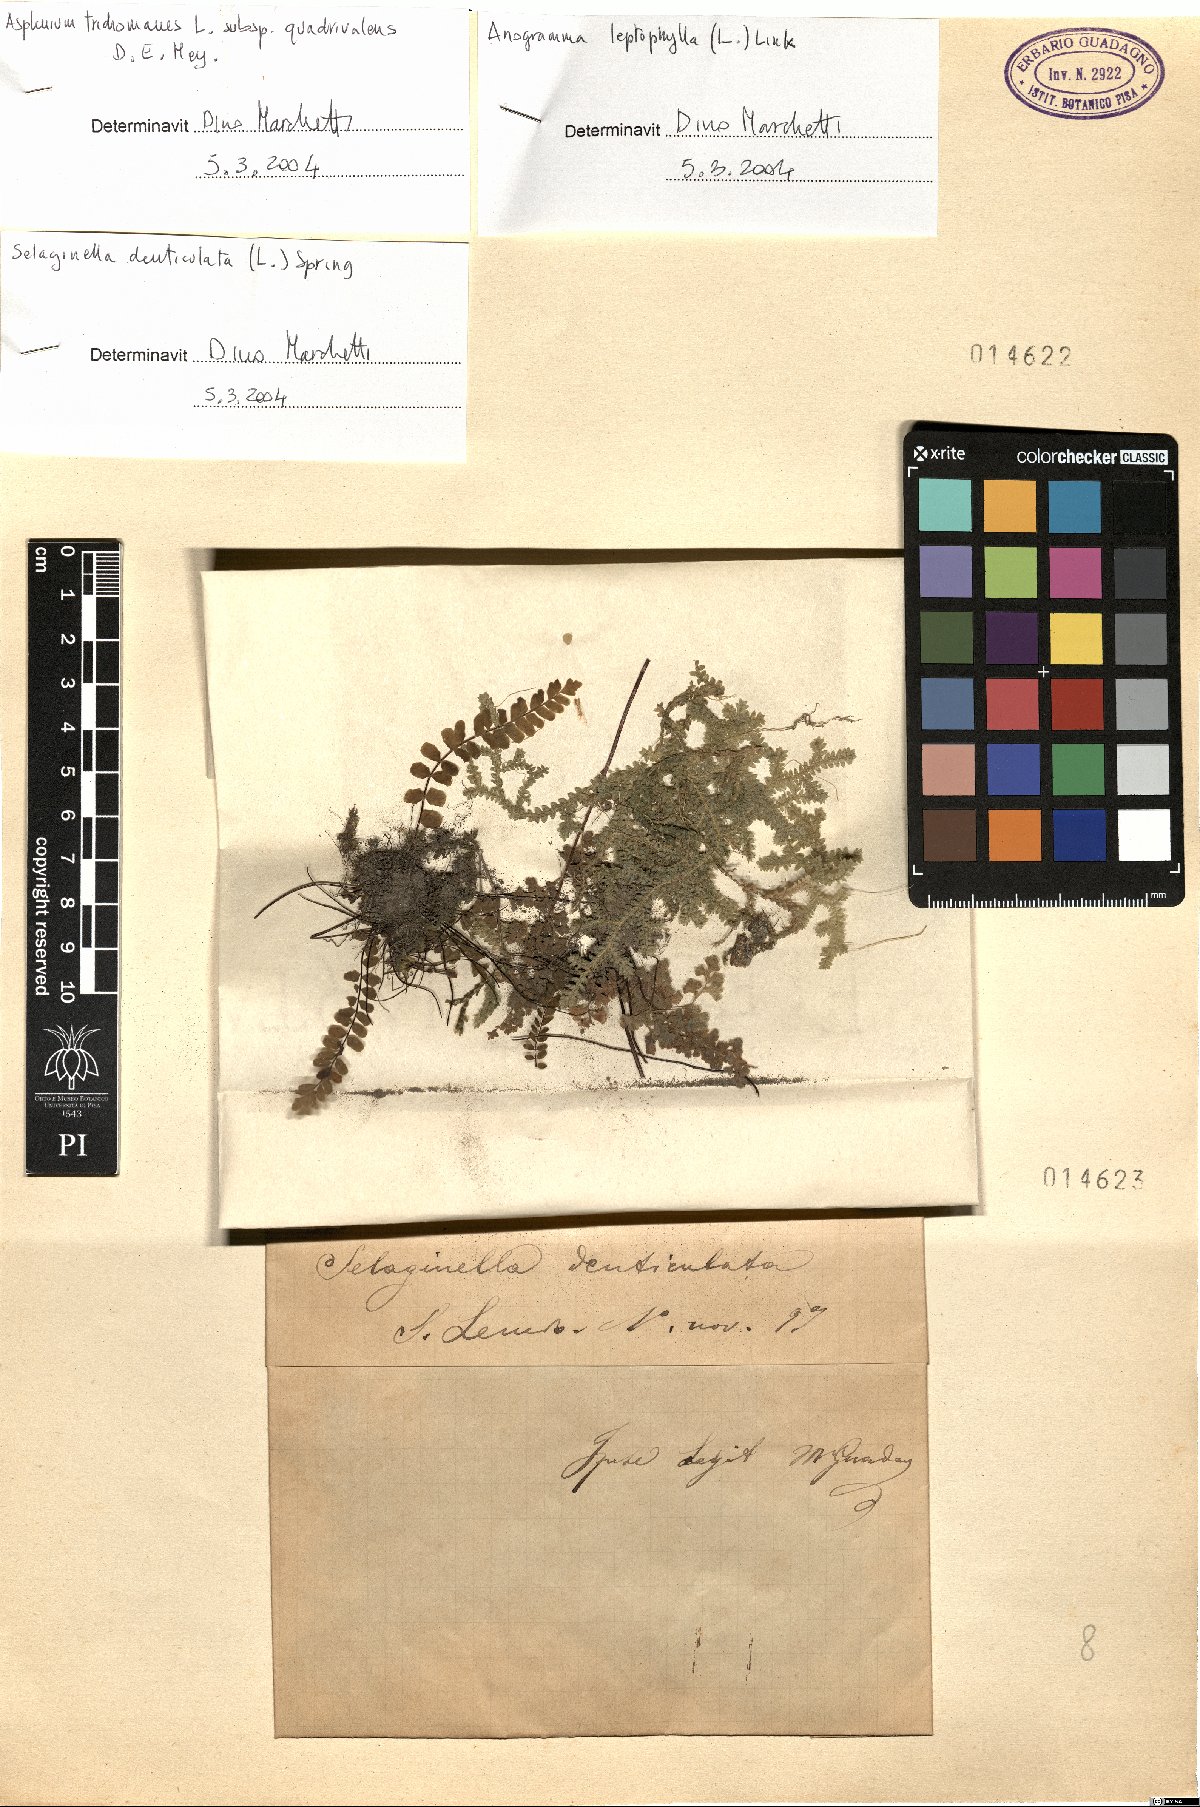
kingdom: Plantae
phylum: Tracheophyta
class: Lycopodiopsida
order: Selaginellales
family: Selaginellaceae
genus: Selaginella
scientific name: Selaginella denticulata
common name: Toothed-leaved clubmoss
